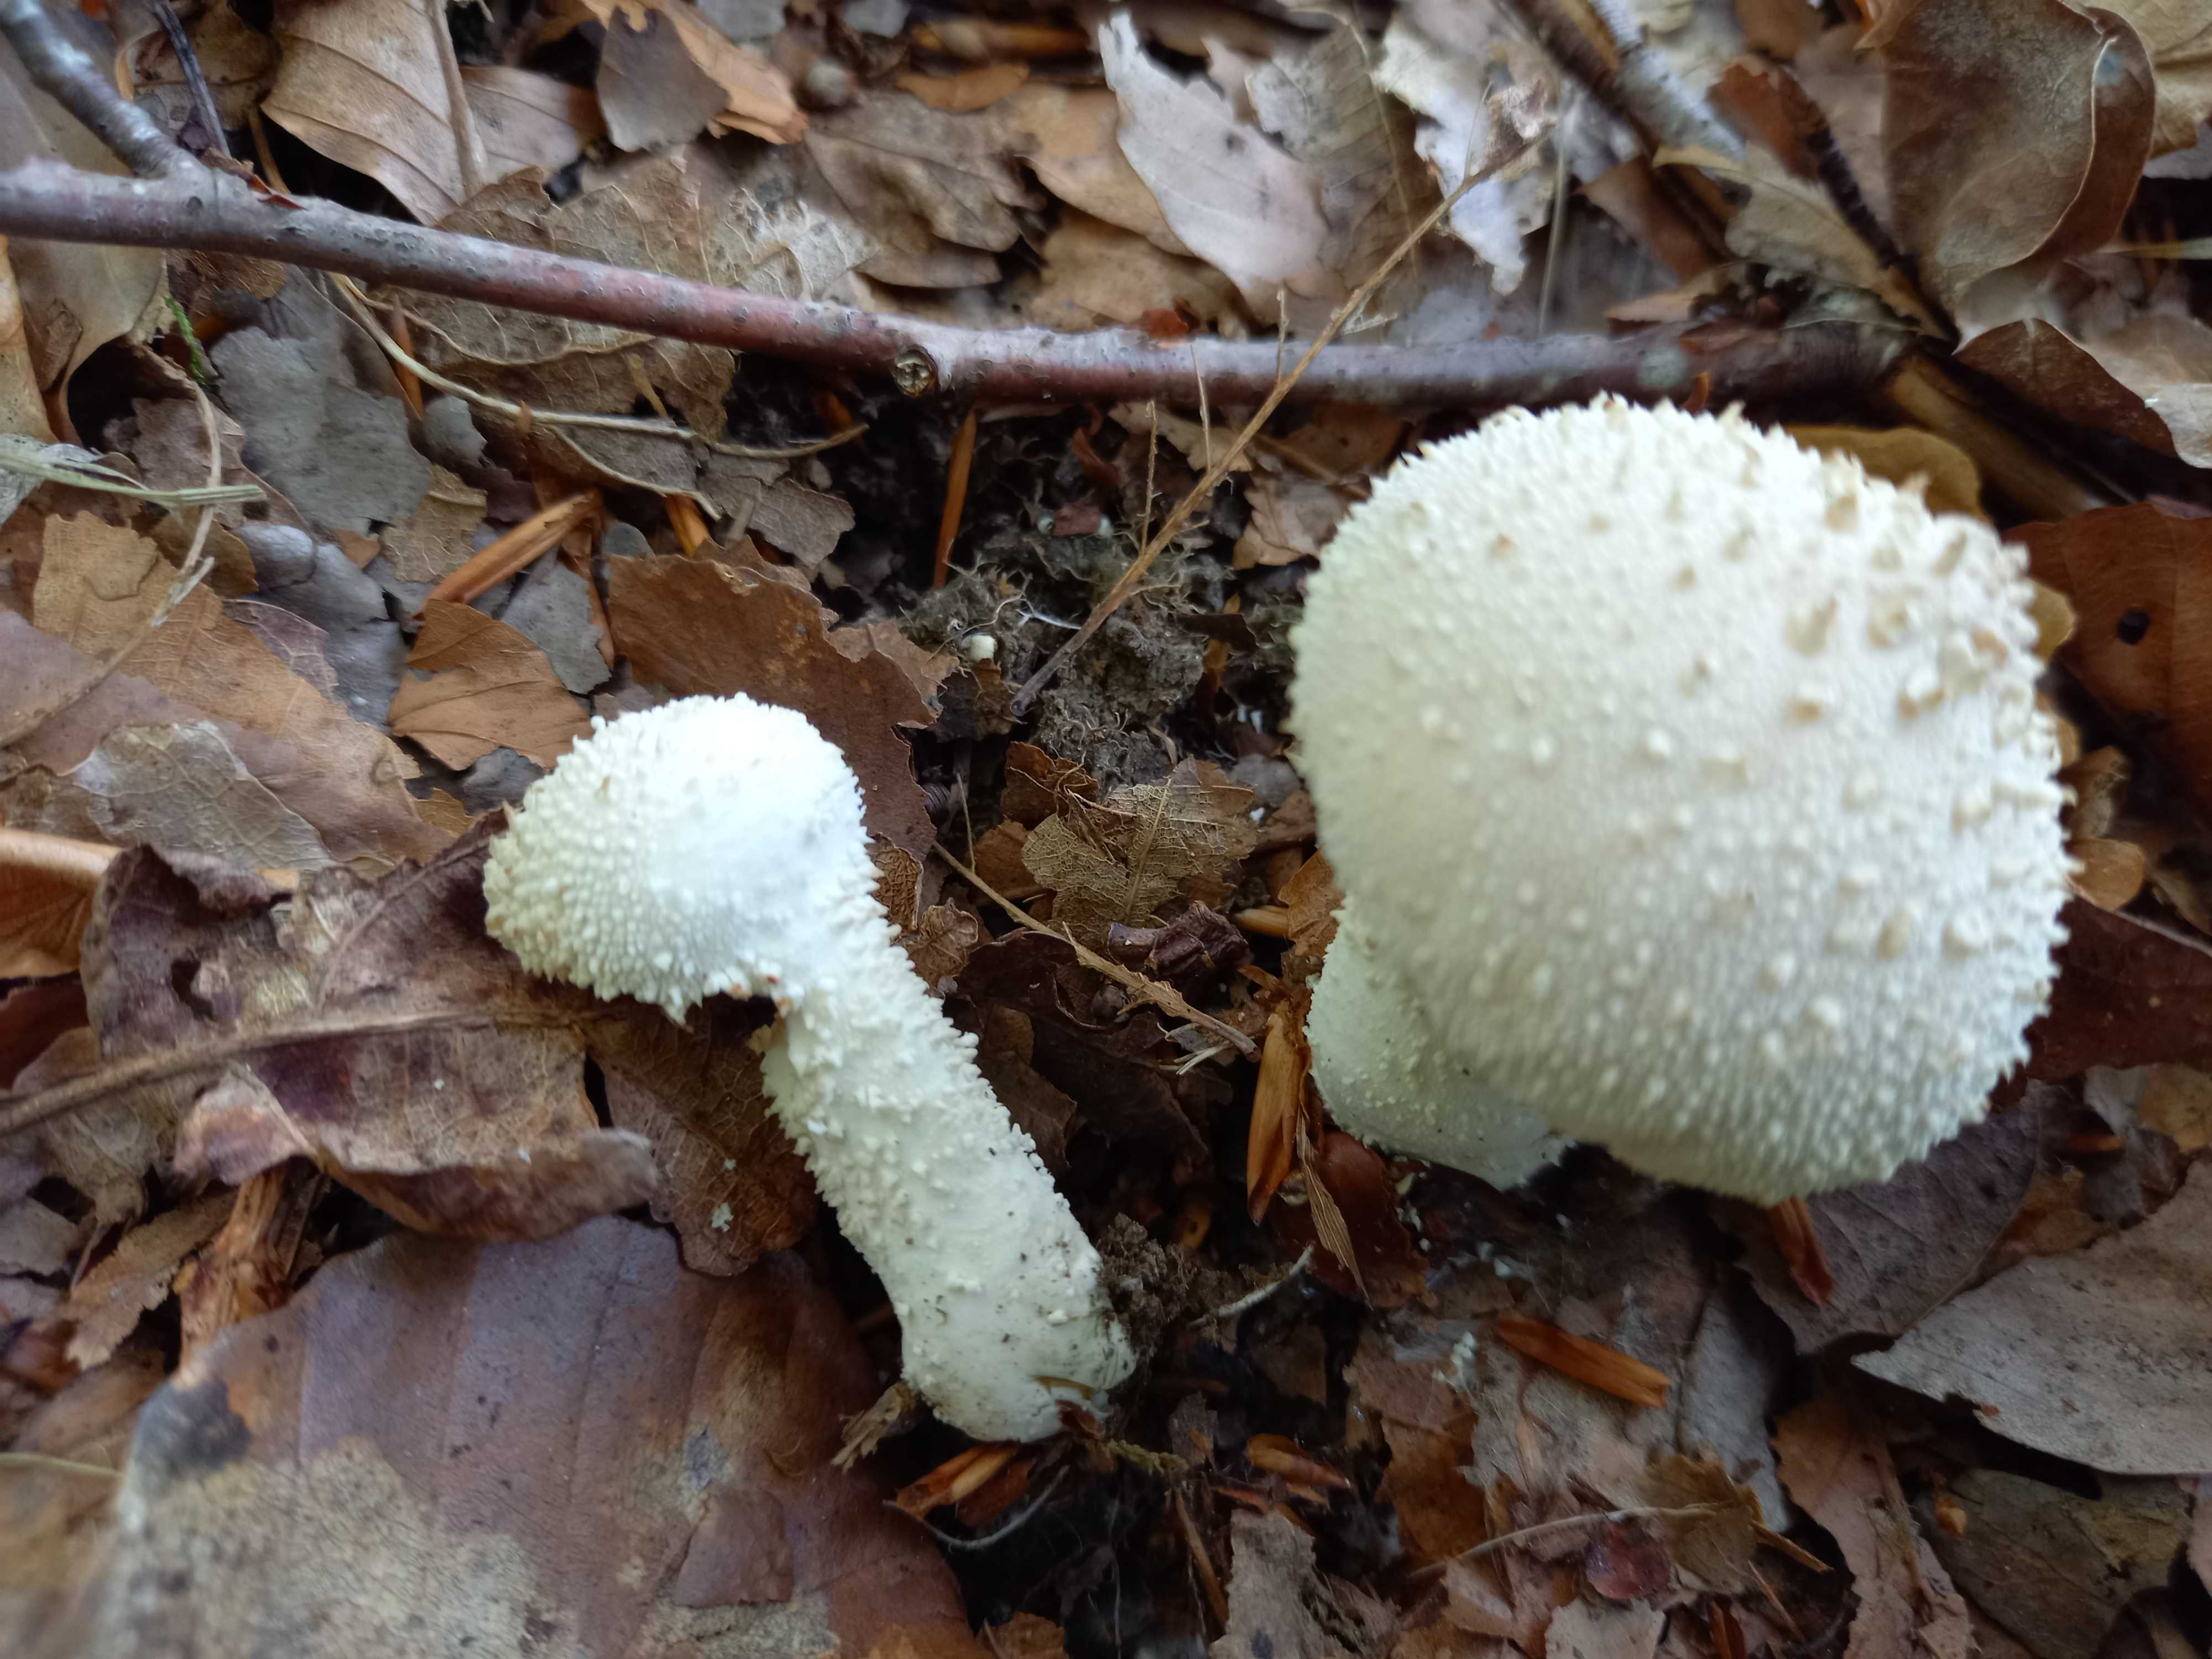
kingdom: Fungi
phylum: Basidiomycota
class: Agaricomycetes
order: Agaricales
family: Lycoperdaceae
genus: Lycoperdon
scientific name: Lycoperdon perlatum
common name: krystal-støvbold
